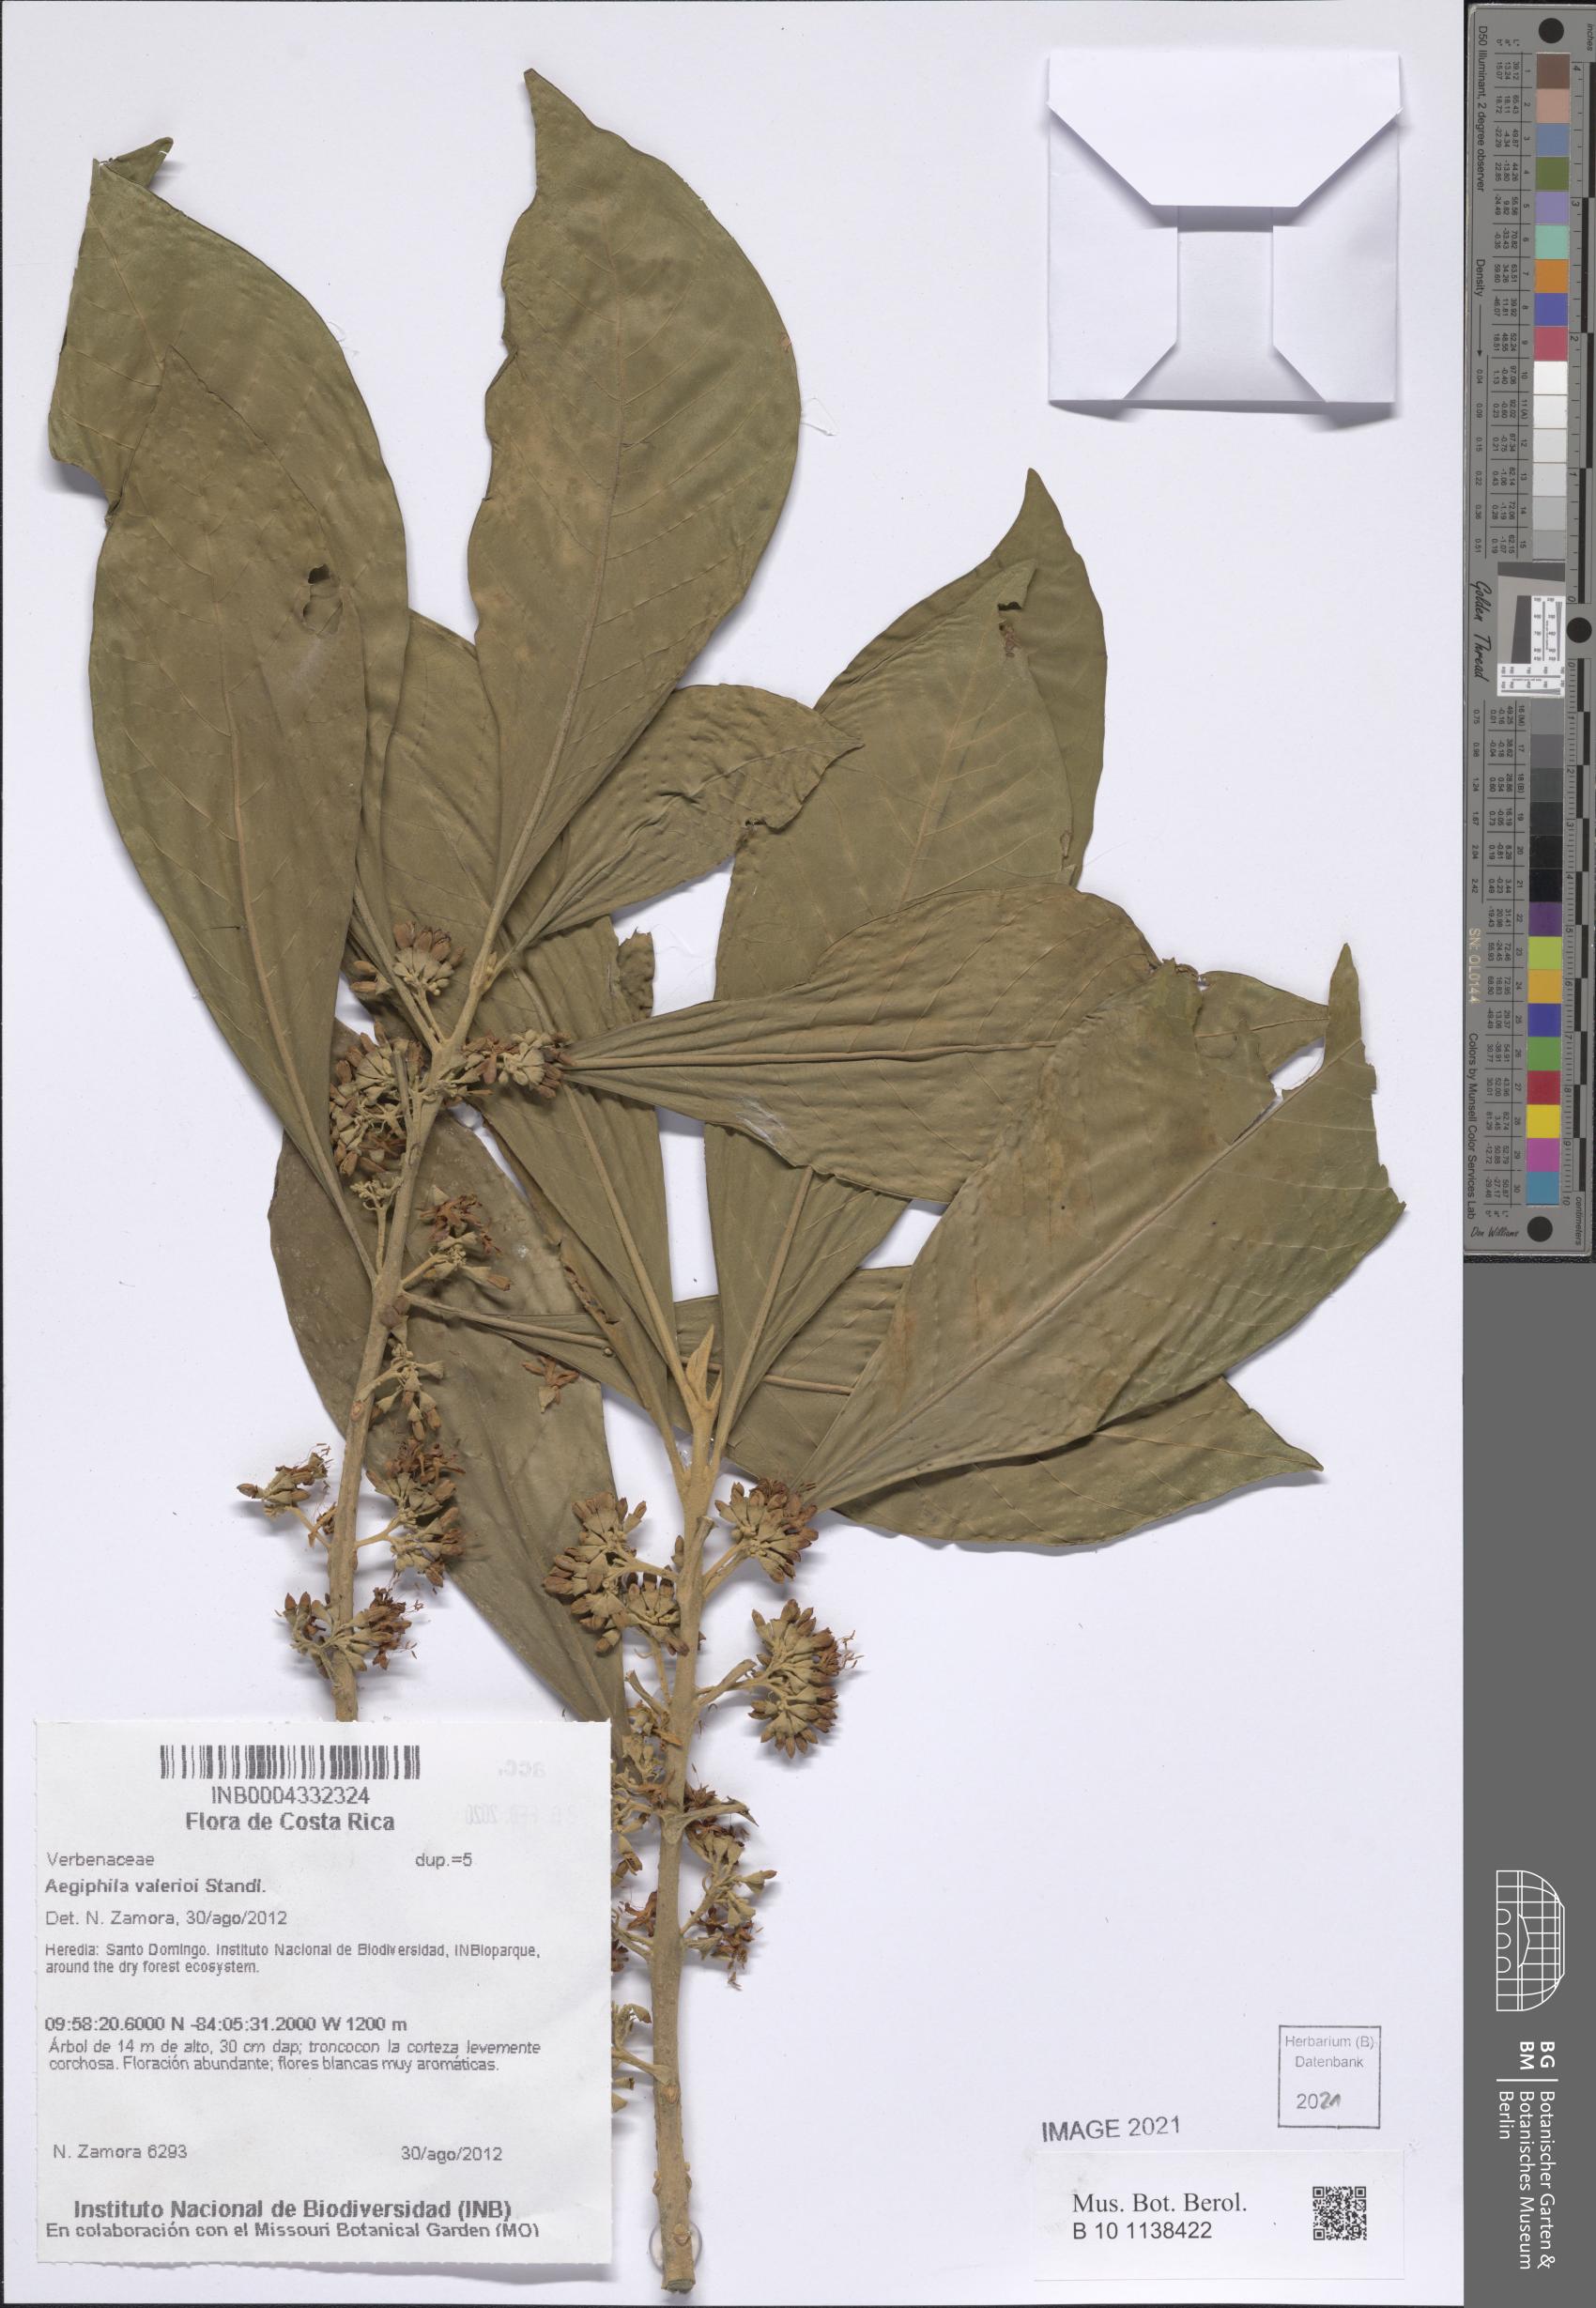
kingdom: Plantae
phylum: Tracheophyta
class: Magnoliopsida
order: Lamiales
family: Lamiaceae
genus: Aegiphila
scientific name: Aegiphila valerioi
